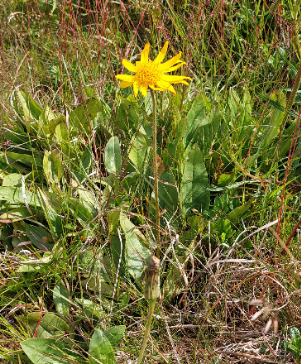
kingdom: Plantae
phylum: Tracheophyta
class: Magnoliopsida
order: Asterales
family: Asteraceae
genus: Arnica
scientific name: Arnica montana
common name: Guldblomme
